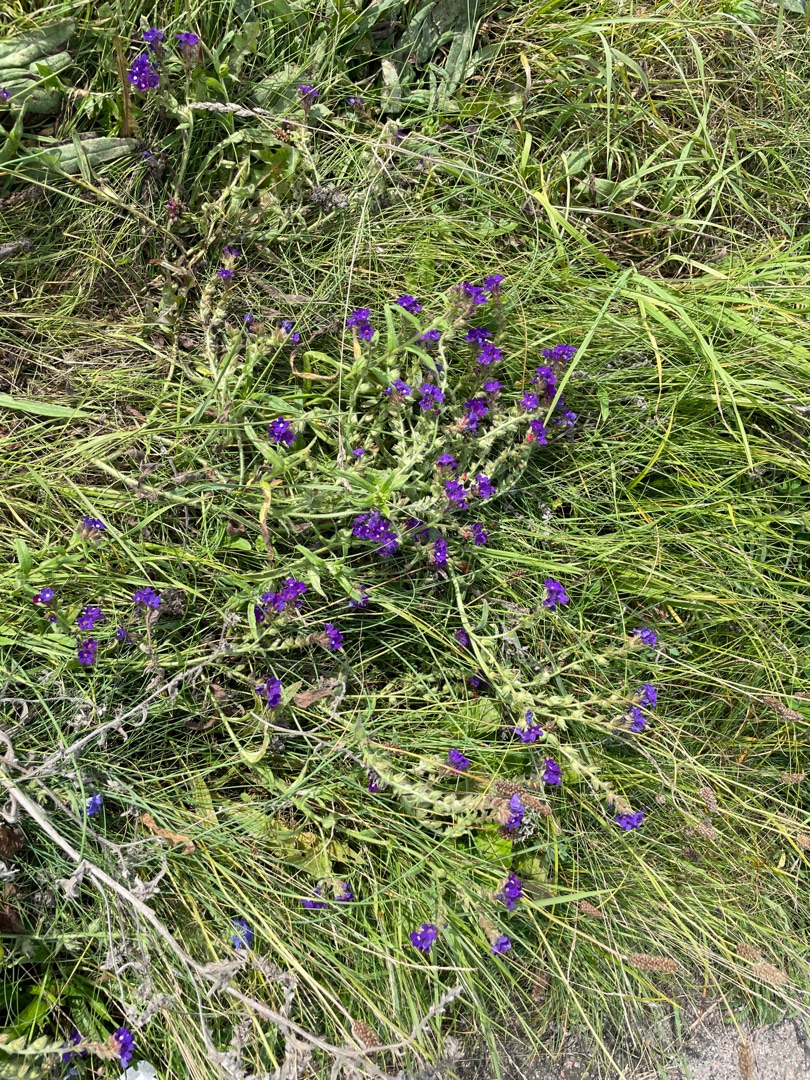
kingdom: Plantae
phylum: Tracheophyta
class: Magnoliopsida
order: Boraginales
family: Boraginaceae
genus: Anchusa
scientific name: Anchusa officinalis
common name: Læge-oksetunge
